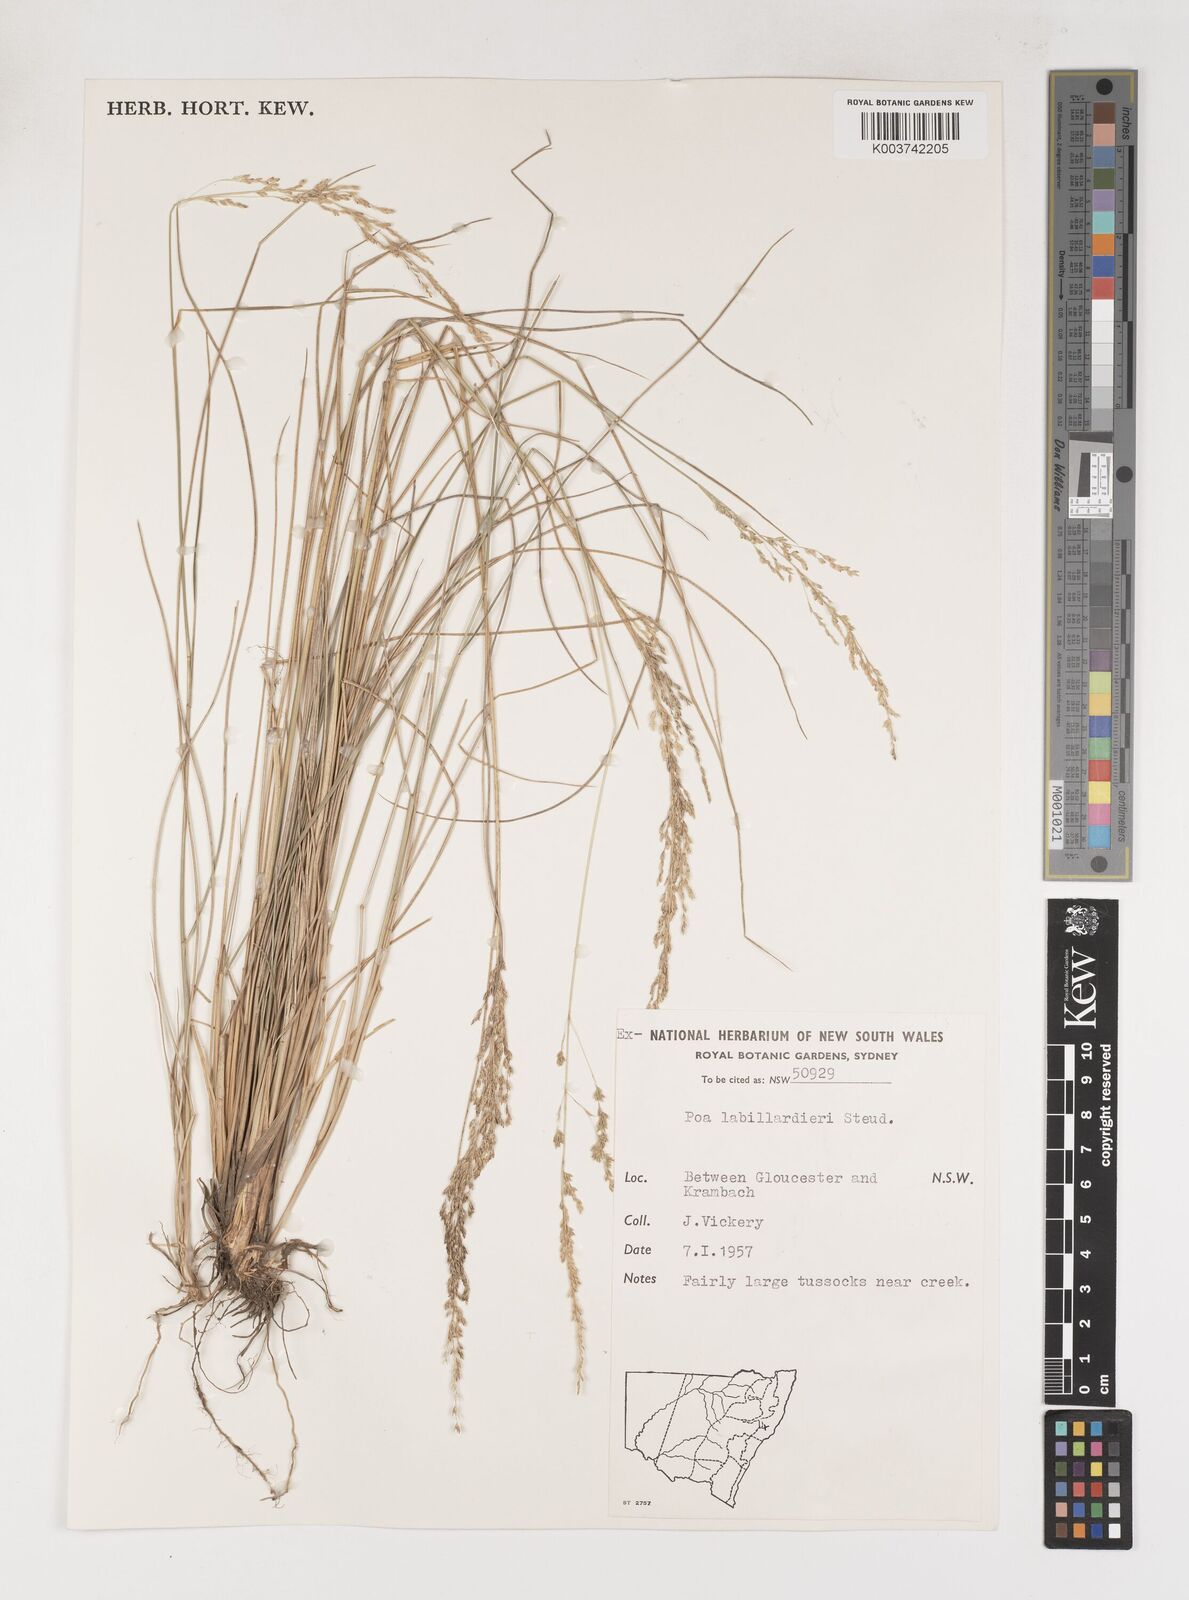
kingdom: Plantae
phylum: Tracheophyta
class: Liliopsida
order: Poales
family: Poaceae
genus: Poa
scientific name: Poa labillardierei
